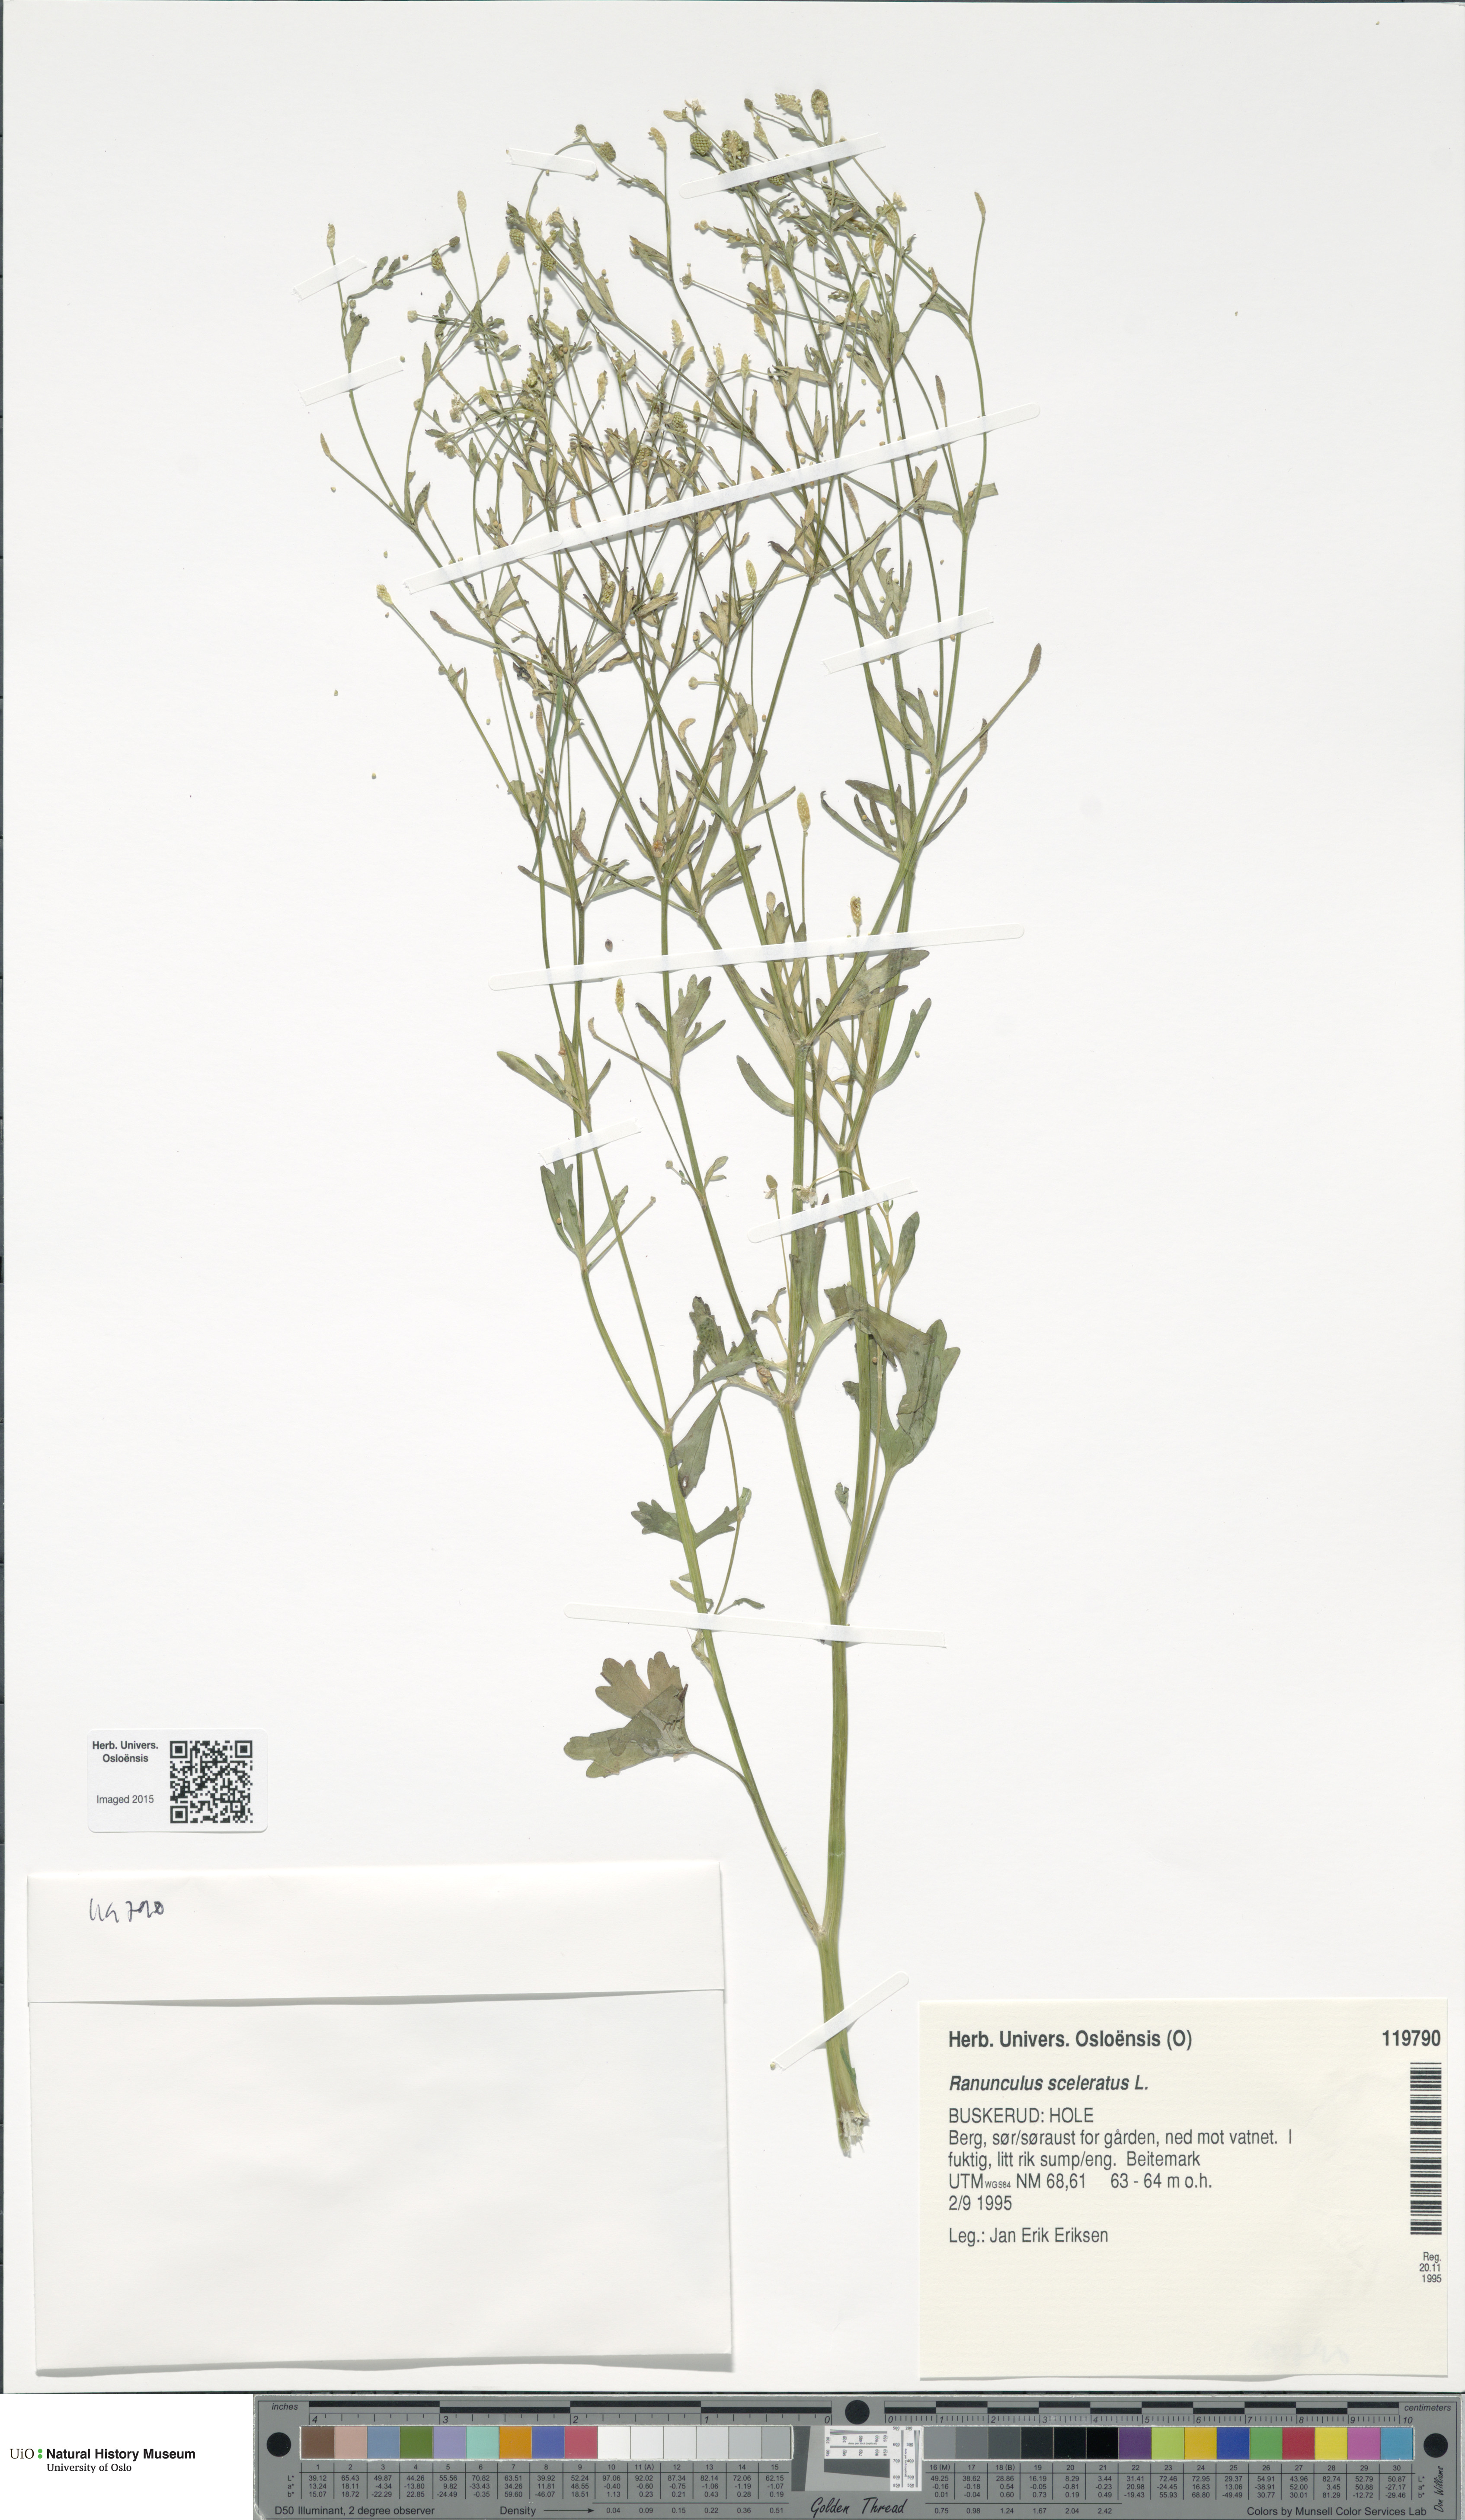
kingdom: Plantae
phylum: Tracheophyta
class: Magnoliopsida
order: Ranunculales
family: Ranunculaceae
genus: Ranunculus
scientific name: Ranunculus sceleratus
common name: Celery-leaved buttercup
